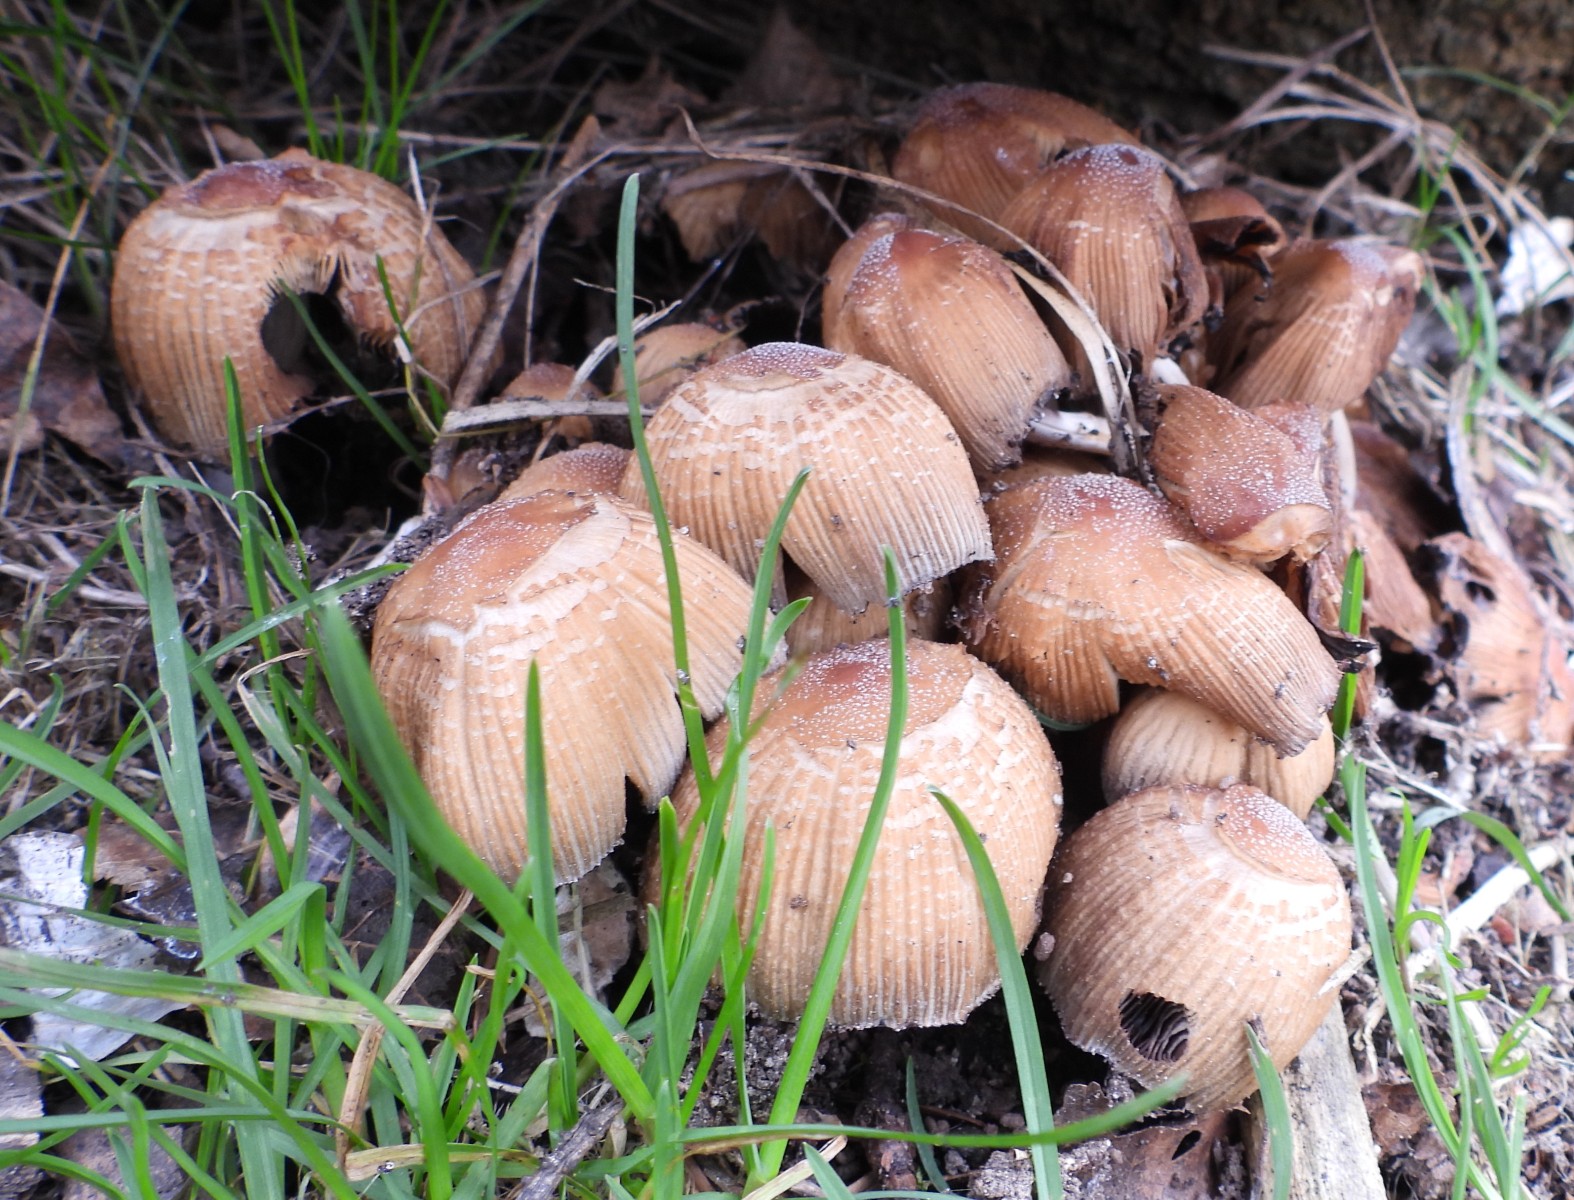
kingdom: Fungi
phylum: Basidiomycota
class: Agaricomycetes
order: Agaricales
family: Psathyrellaceae
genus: Coprinellus
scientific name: Coprinellus micaceus
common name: glimmer-blækhat
